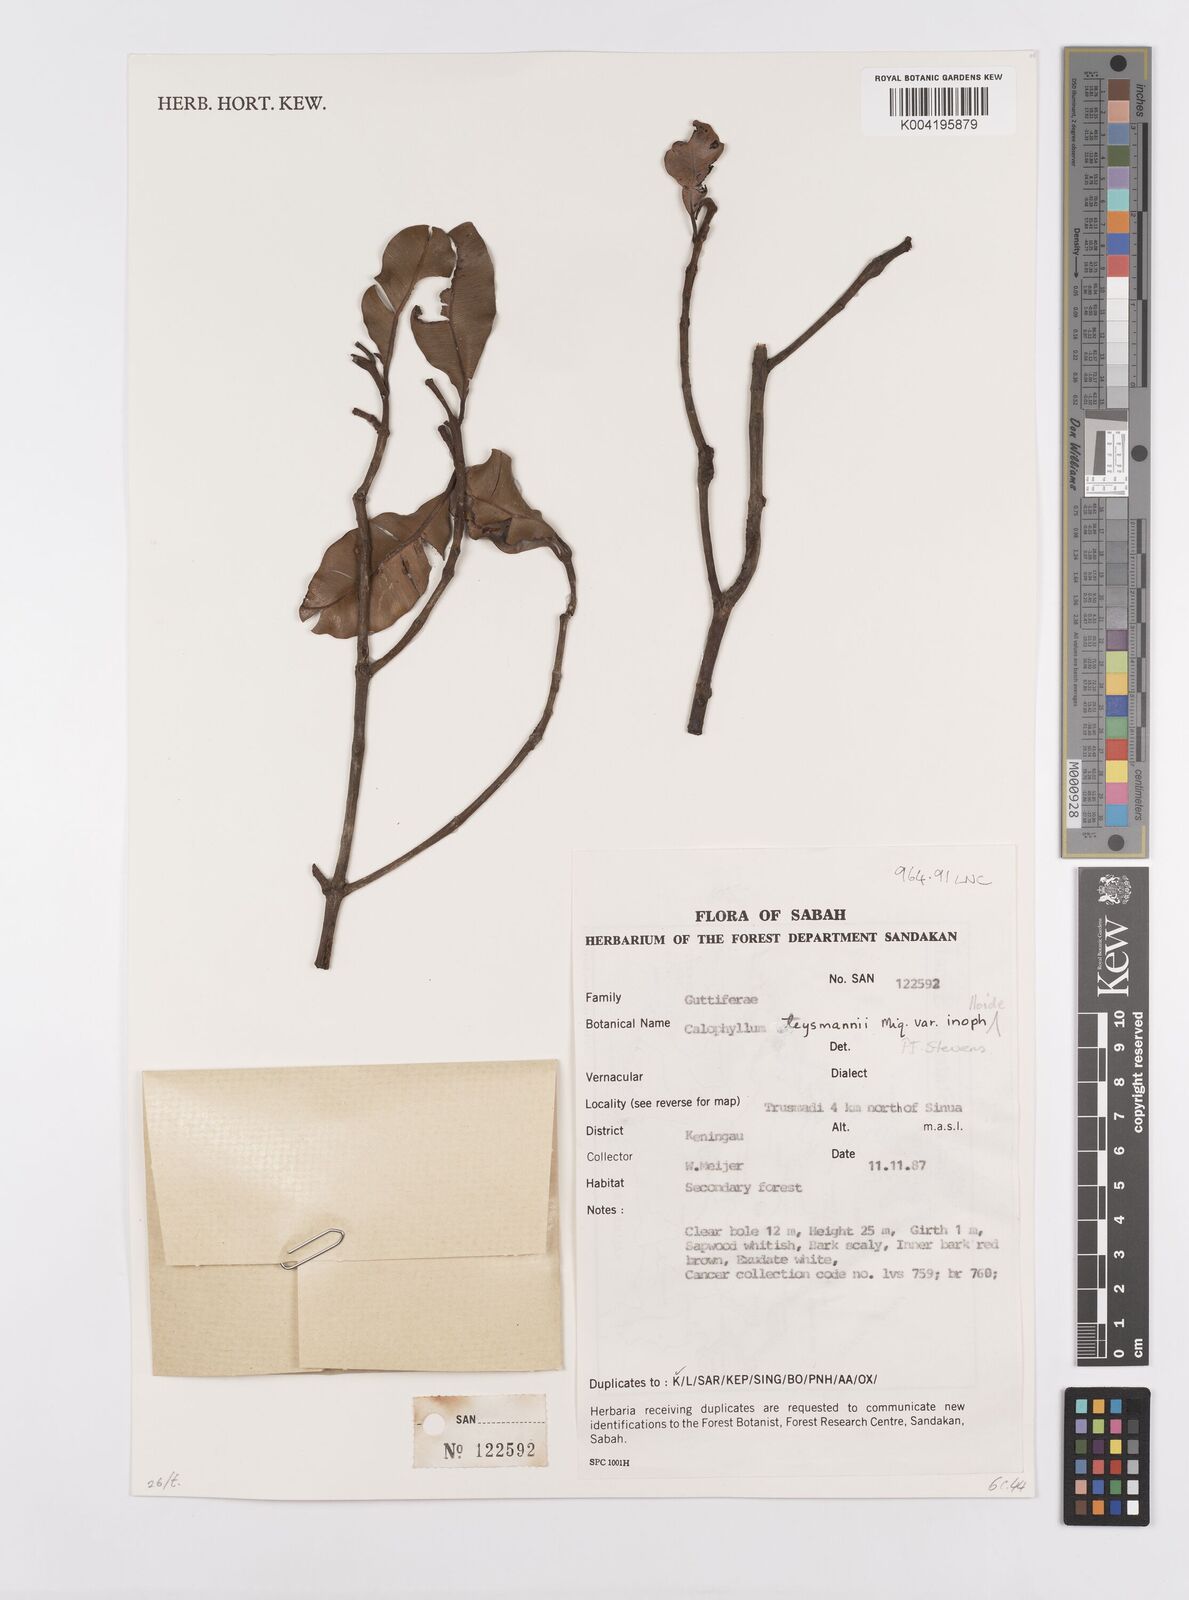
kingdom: Plantae
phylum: Tracheophyta
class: Magnoliopsida
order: Malpighiales
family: Calophyllaceae
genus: Calophyllum
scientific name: Calophyllum teysmannii
